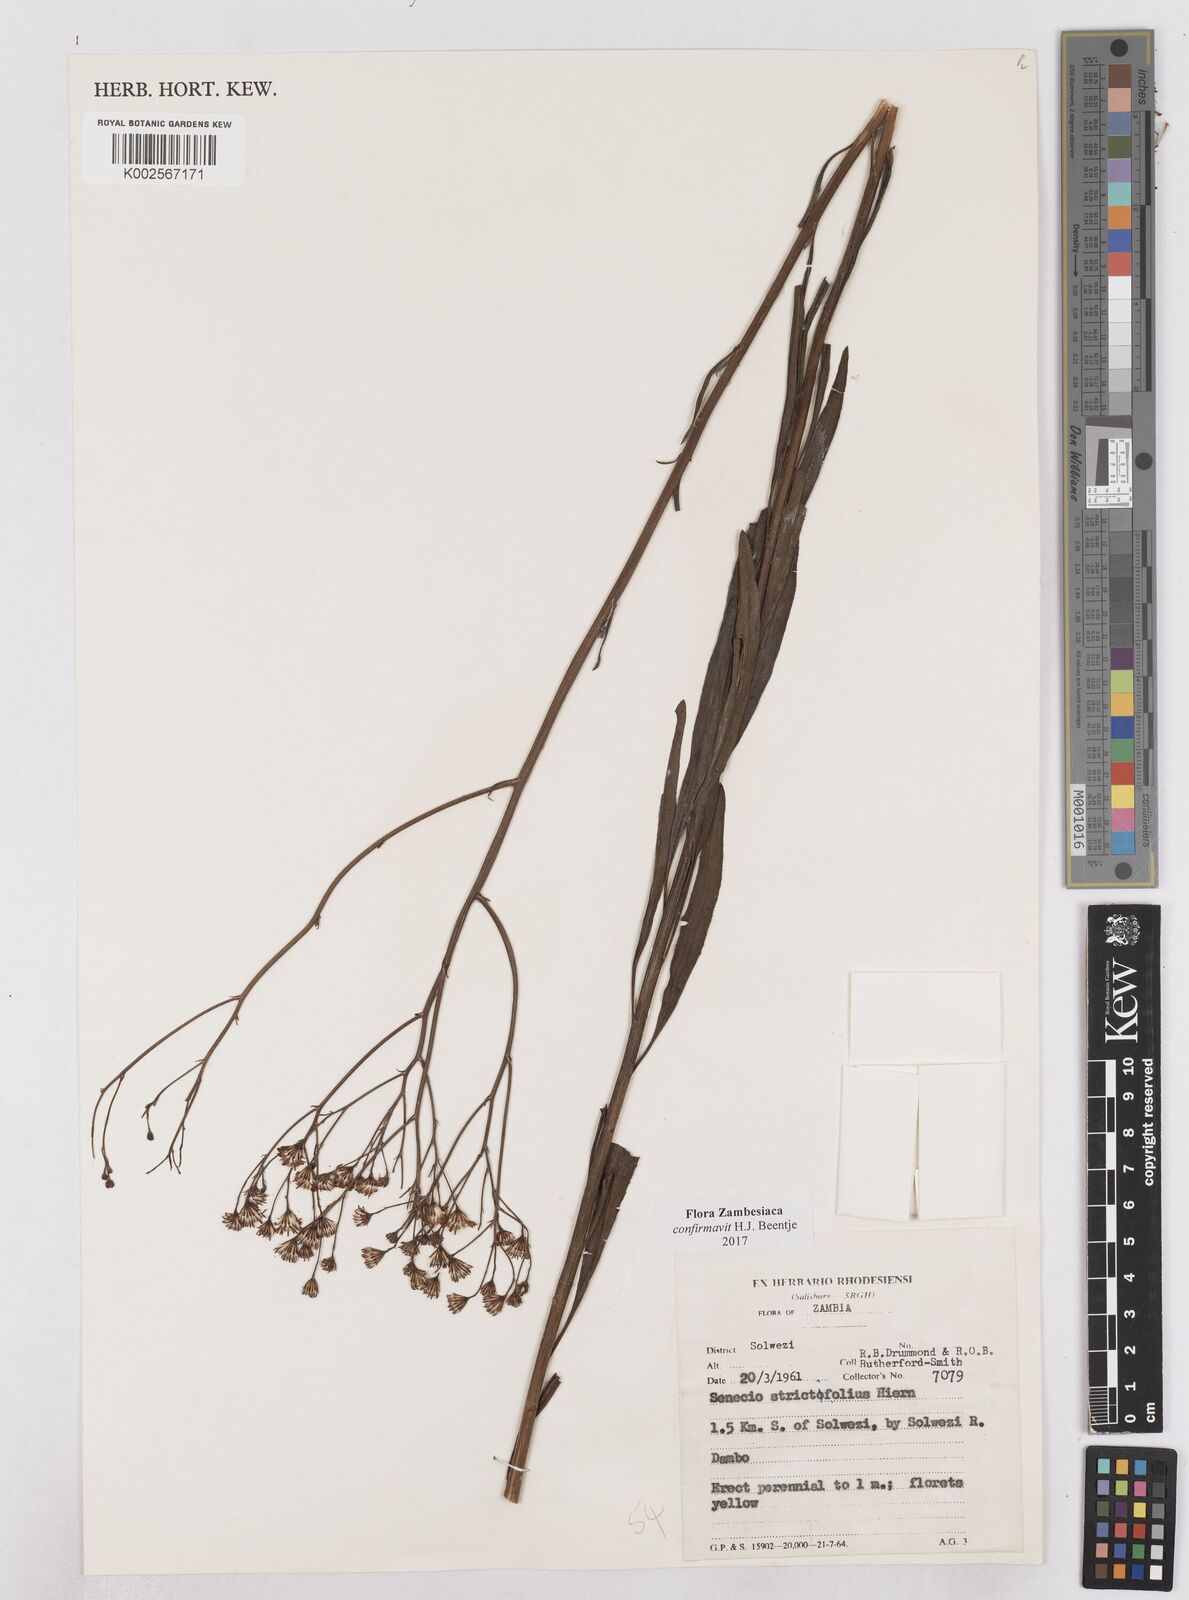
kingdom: Plantae
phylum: Tracheophyta
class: Magnoliopsida
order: Asterales
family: Asteraceae
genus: Senecio
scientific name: Senecio strictifolius
